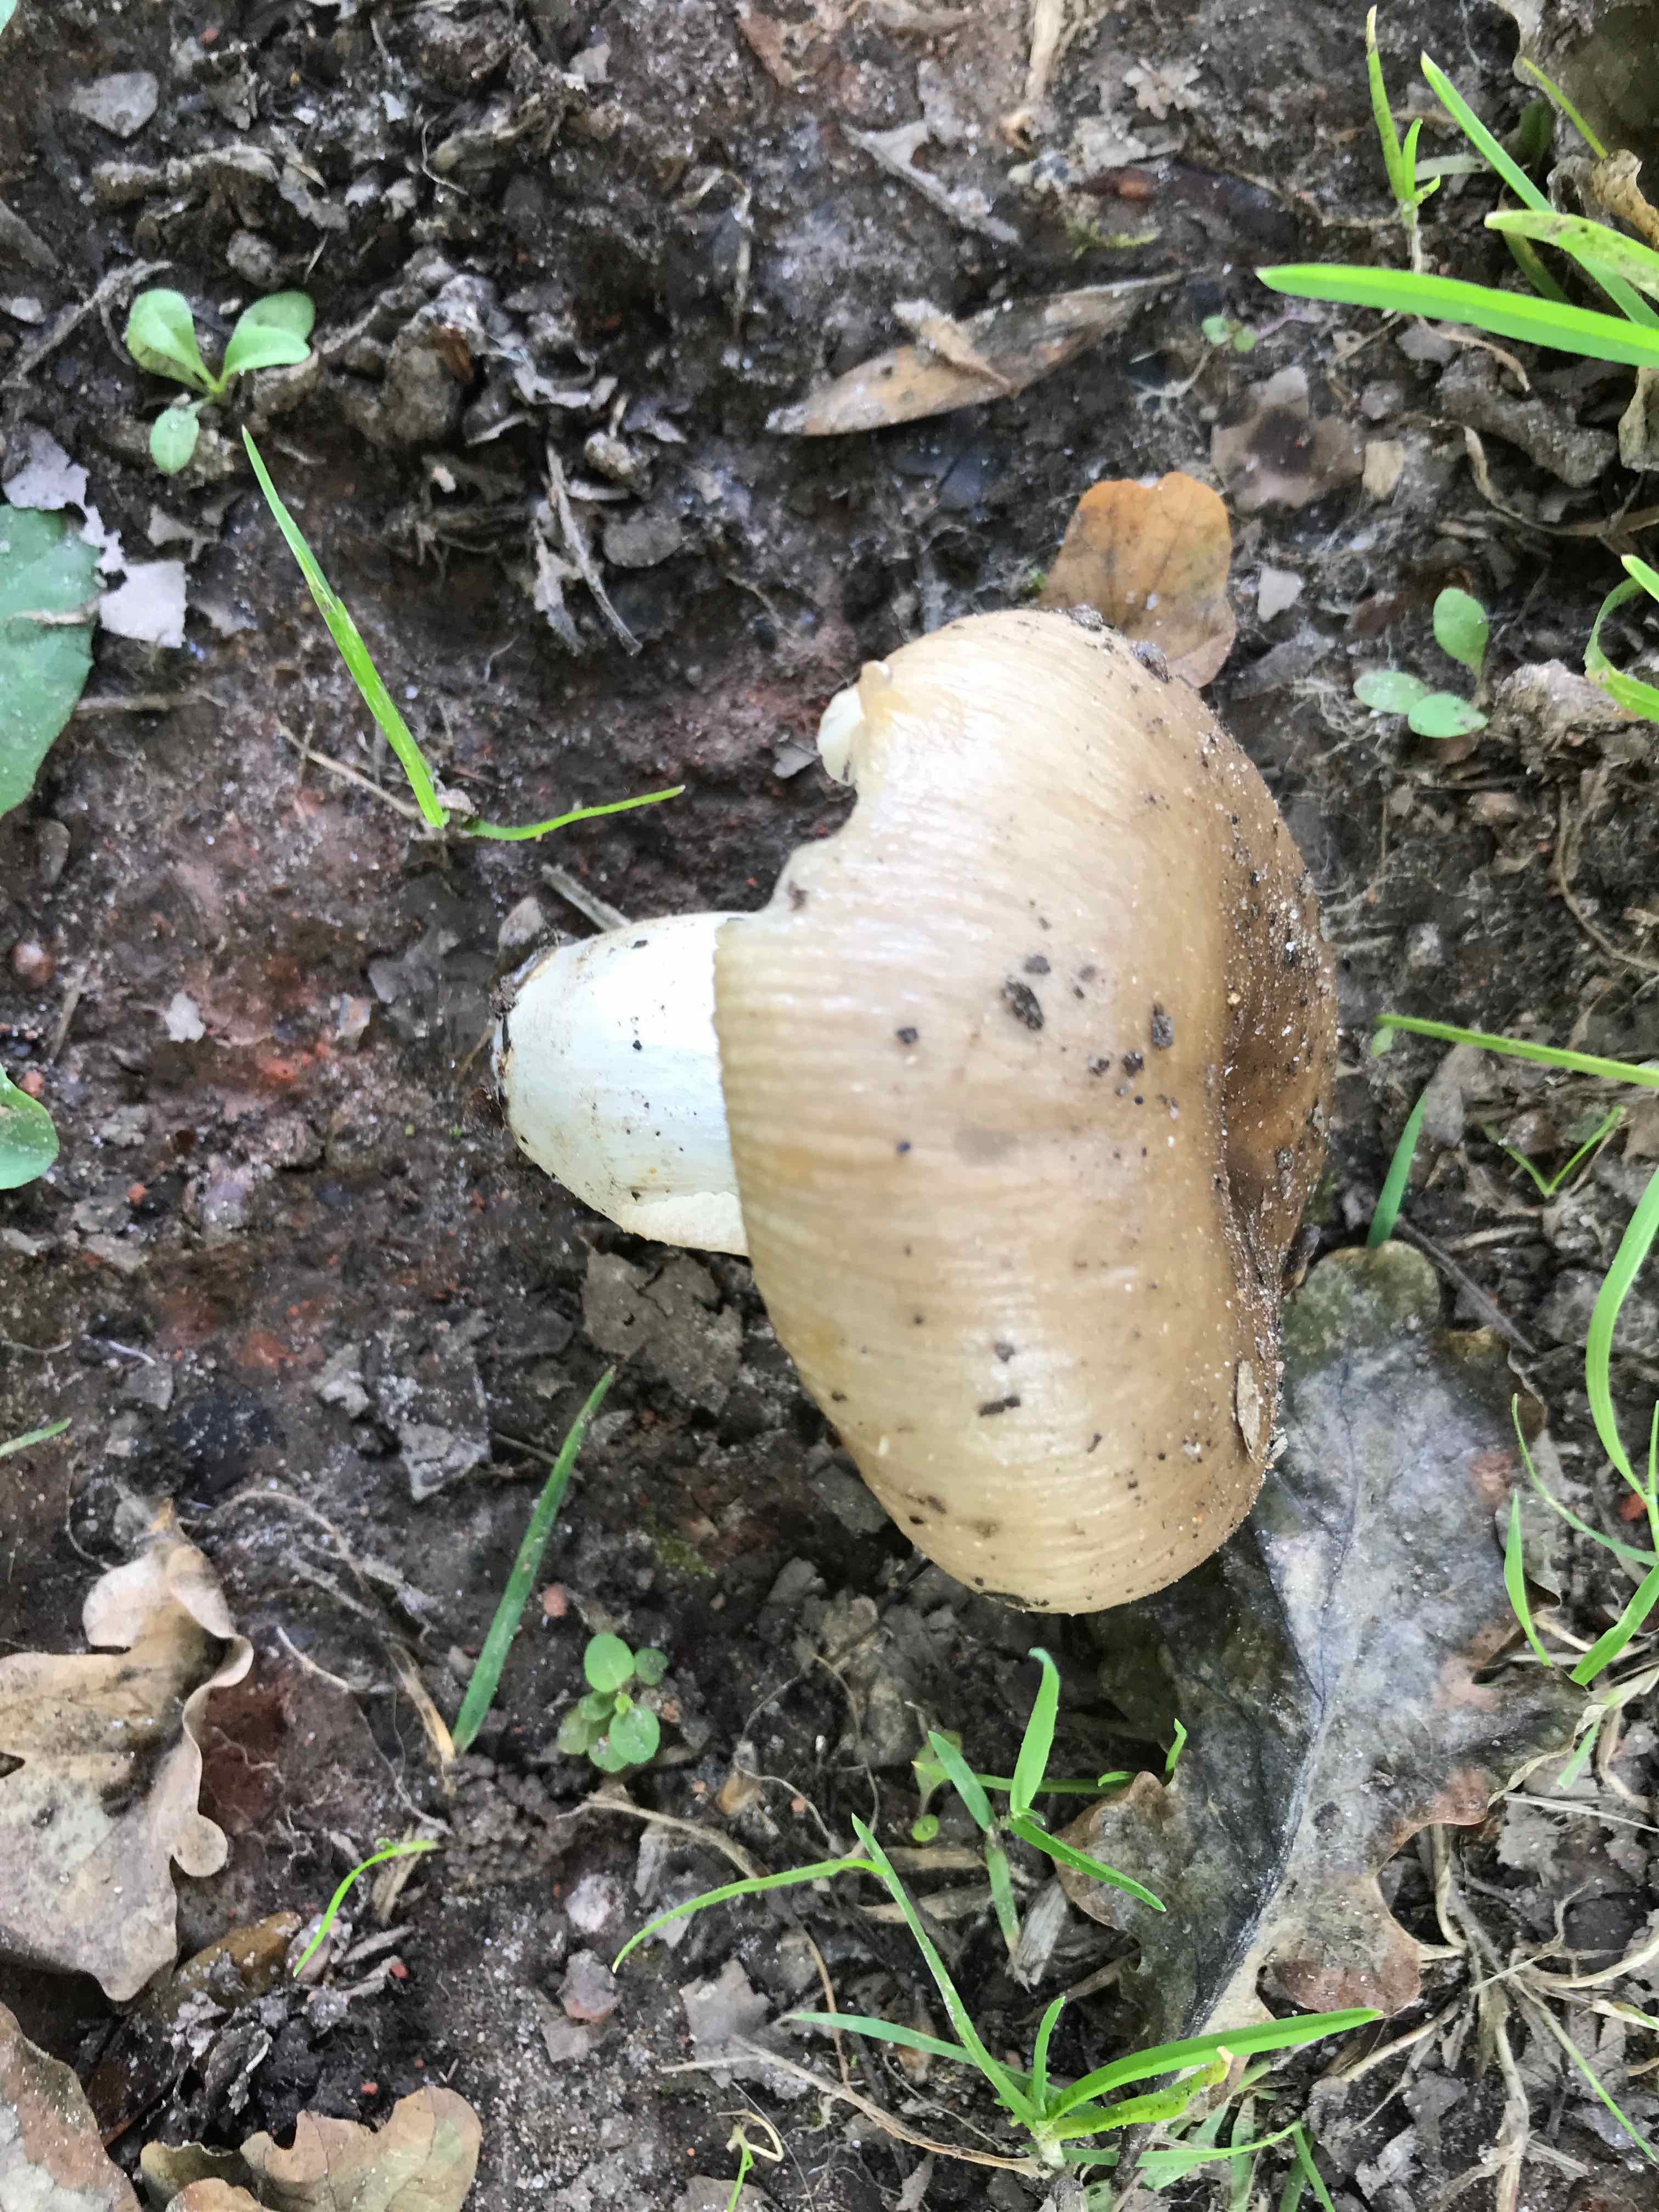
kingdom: Fungi
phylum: Basidiomycota
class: Agaricomycetes
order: Russulales
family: Russulaceae
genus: Russula
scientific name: Russula sororia
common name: brun kam-skørhat
